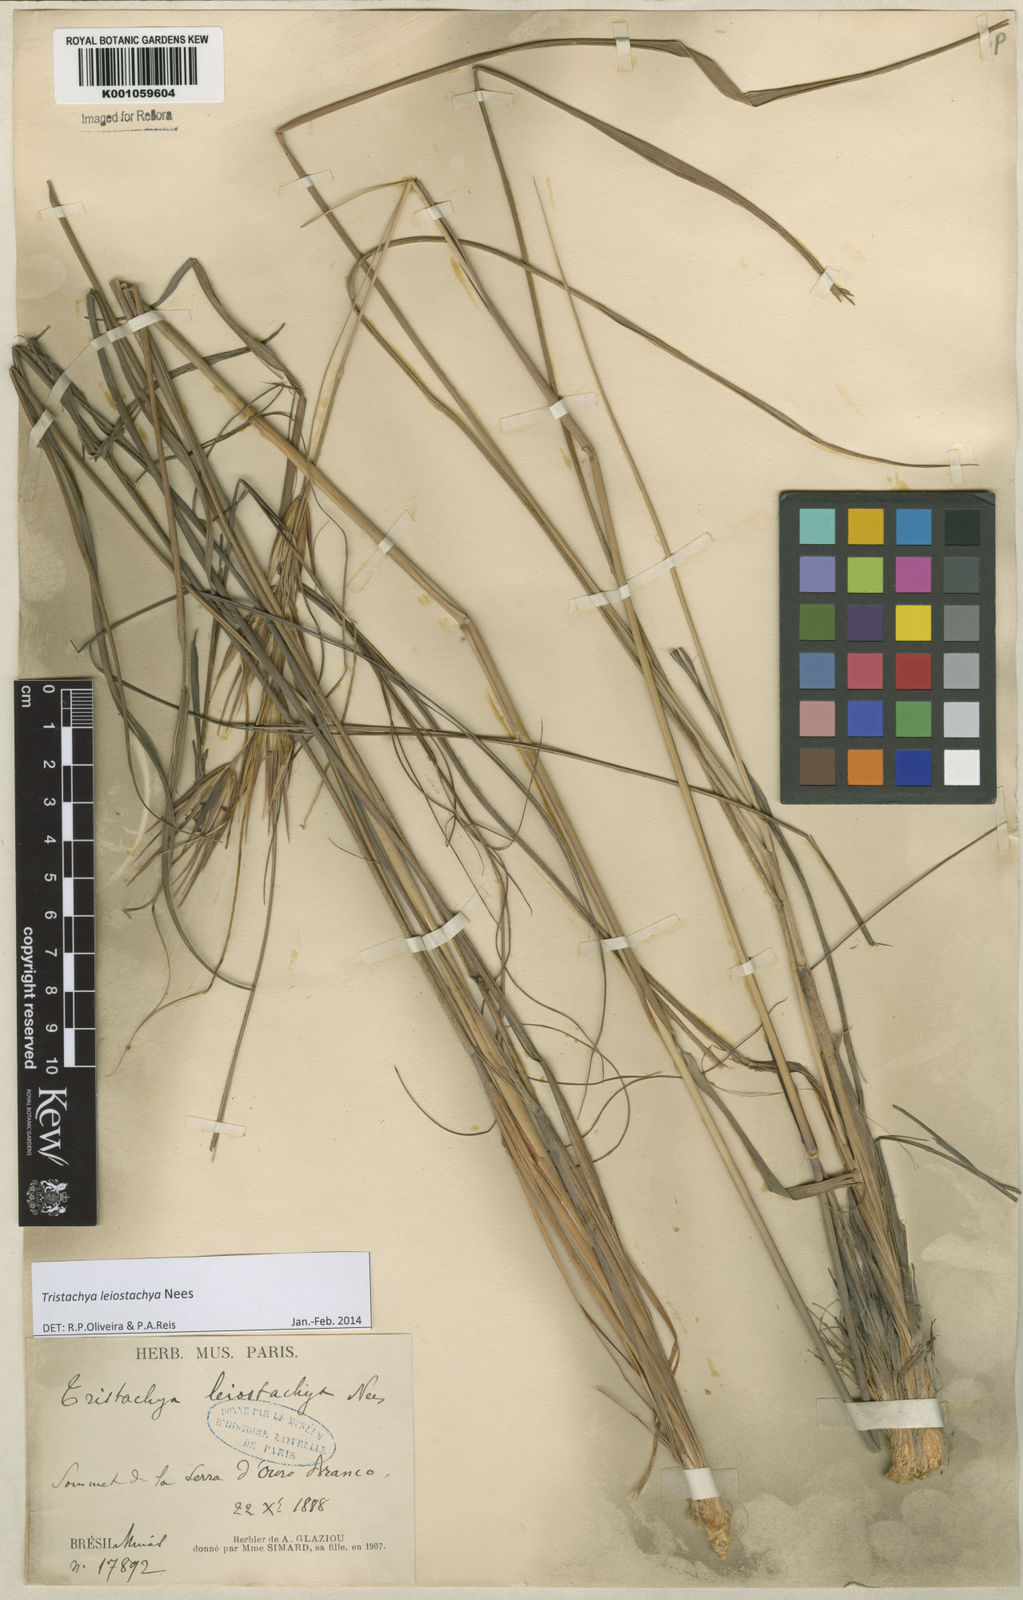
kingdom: Plantae
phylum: Tracheophyta
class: Liliopsida
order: Poales
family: Poaceae
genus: Tristachya
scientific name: Tristachya leiostachya
